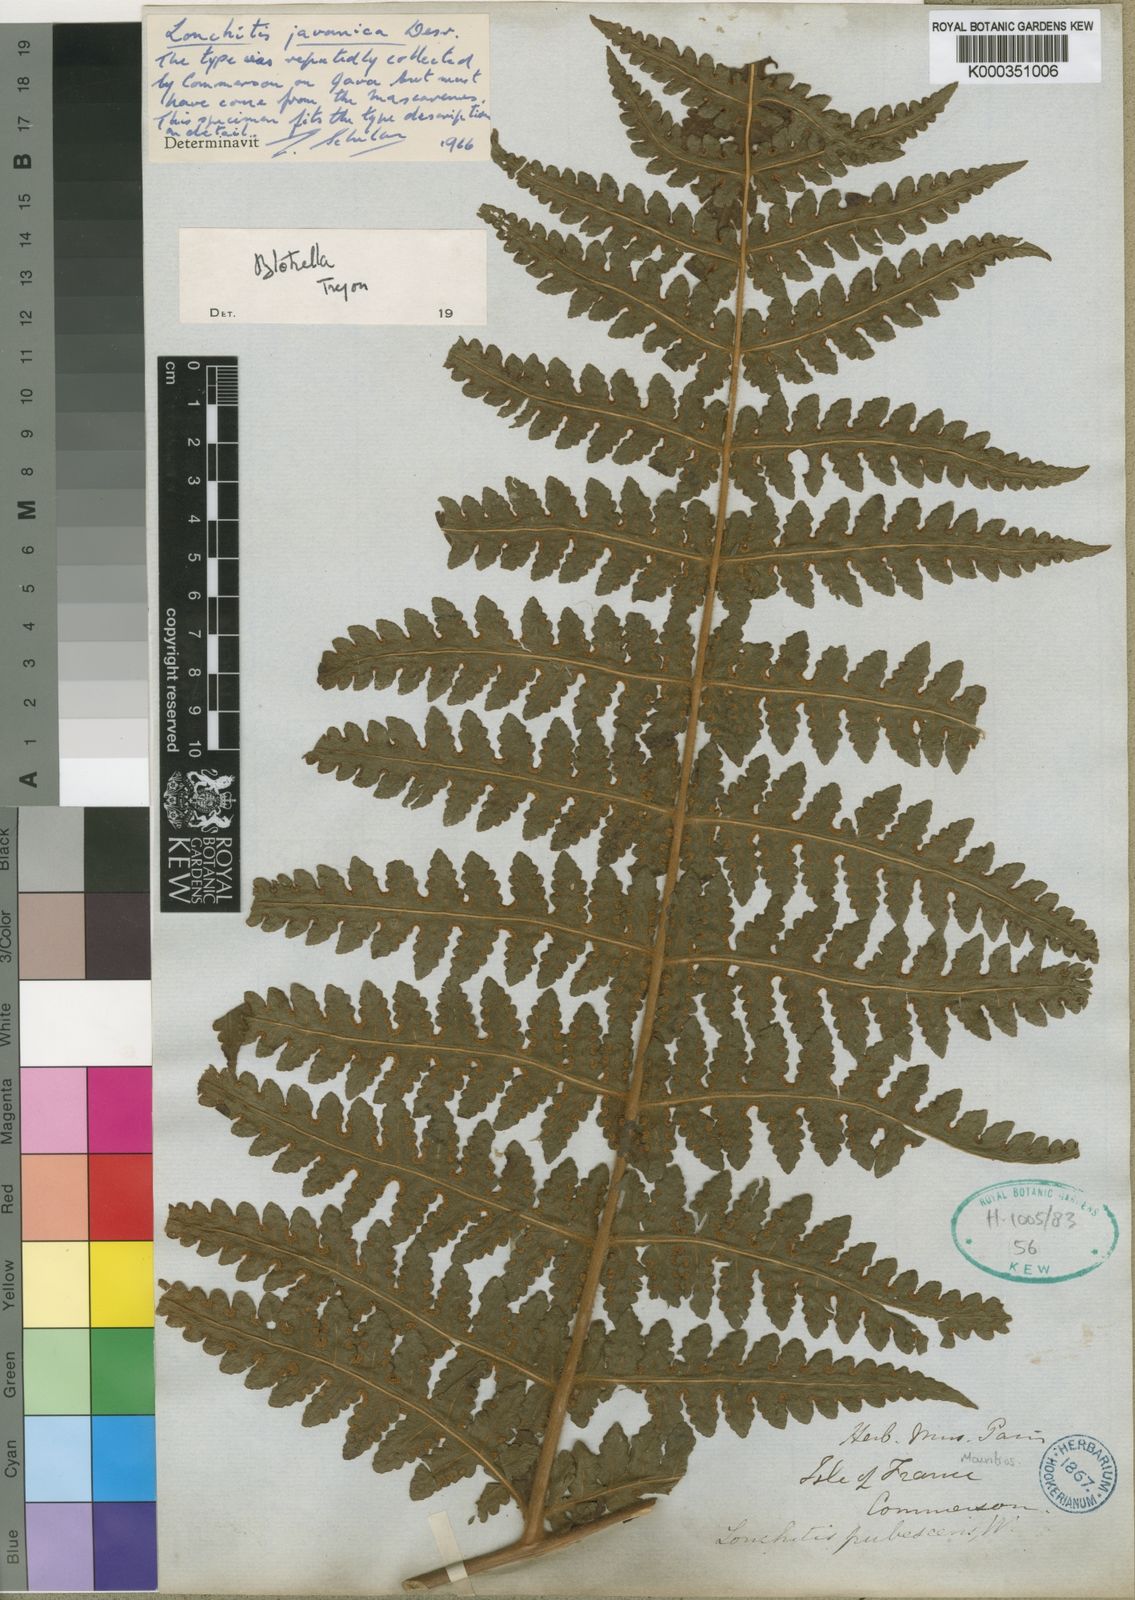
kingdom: Plantae
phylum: Tracheophyta
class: Polypodiopsida
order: Polypodiales
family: Dennstaedtiaceae
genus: Blotiella
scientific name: Blotiella glabra
